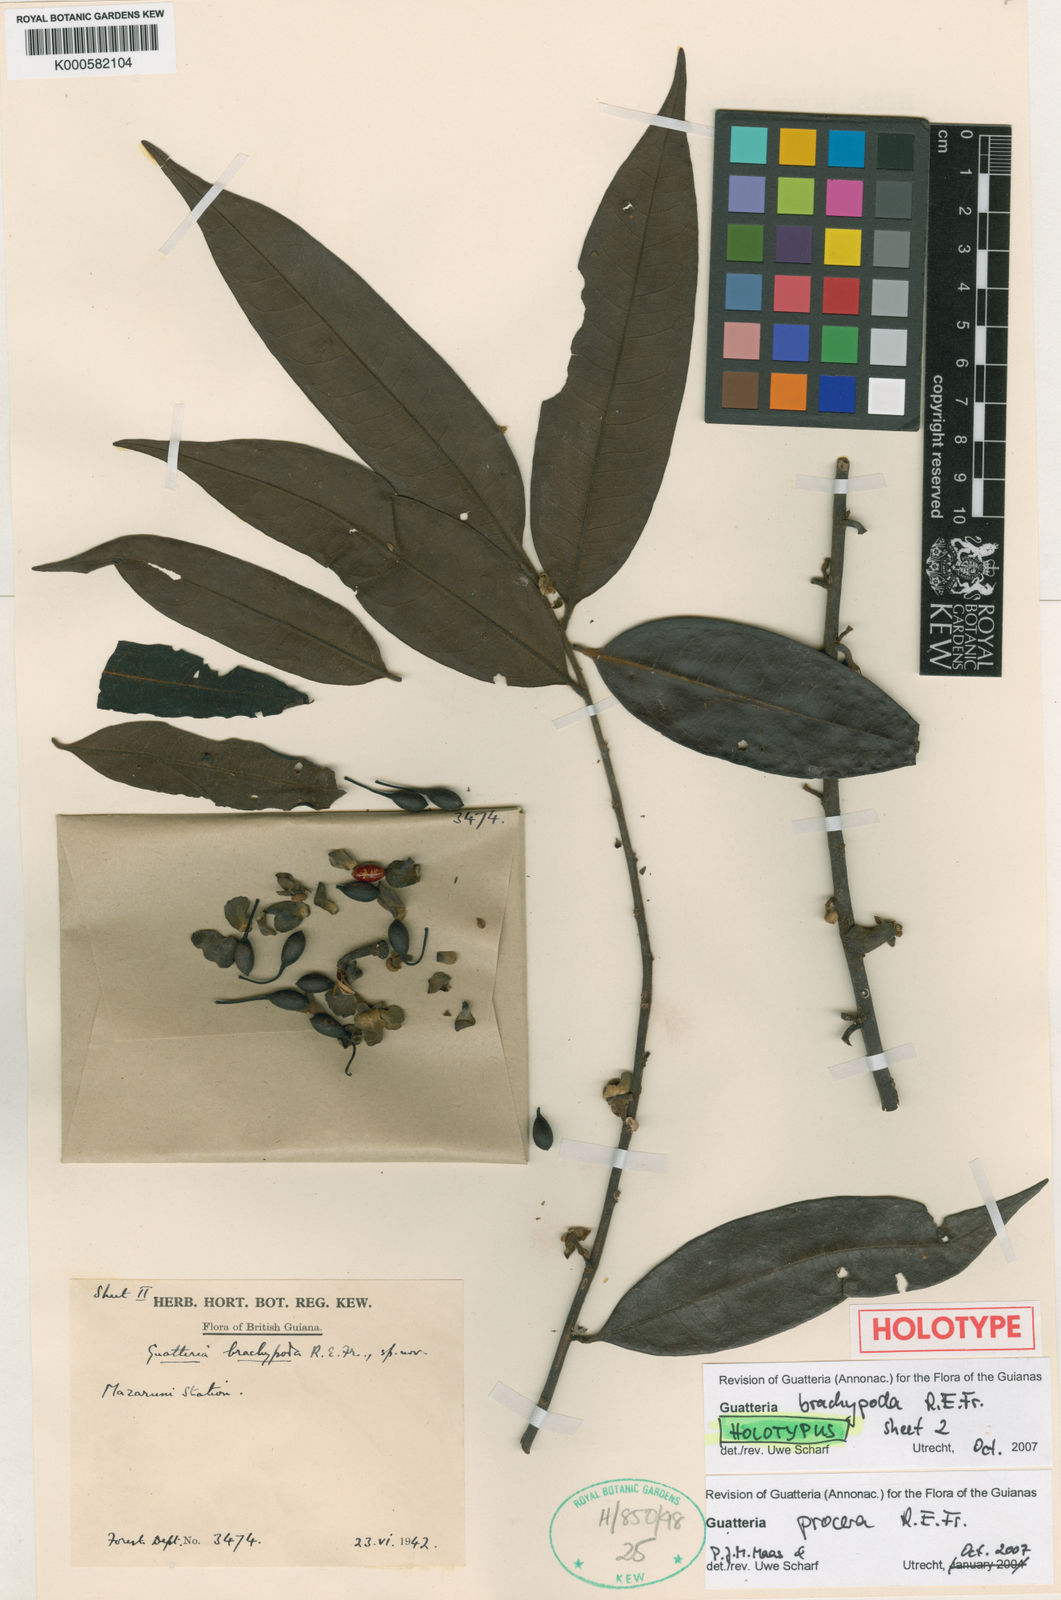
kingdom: Plantae
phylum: Tracheophyta
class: Magnoliopsida
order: Magnoliales
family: Annonaceae
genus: Guatteria
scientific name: Guatteria procera
